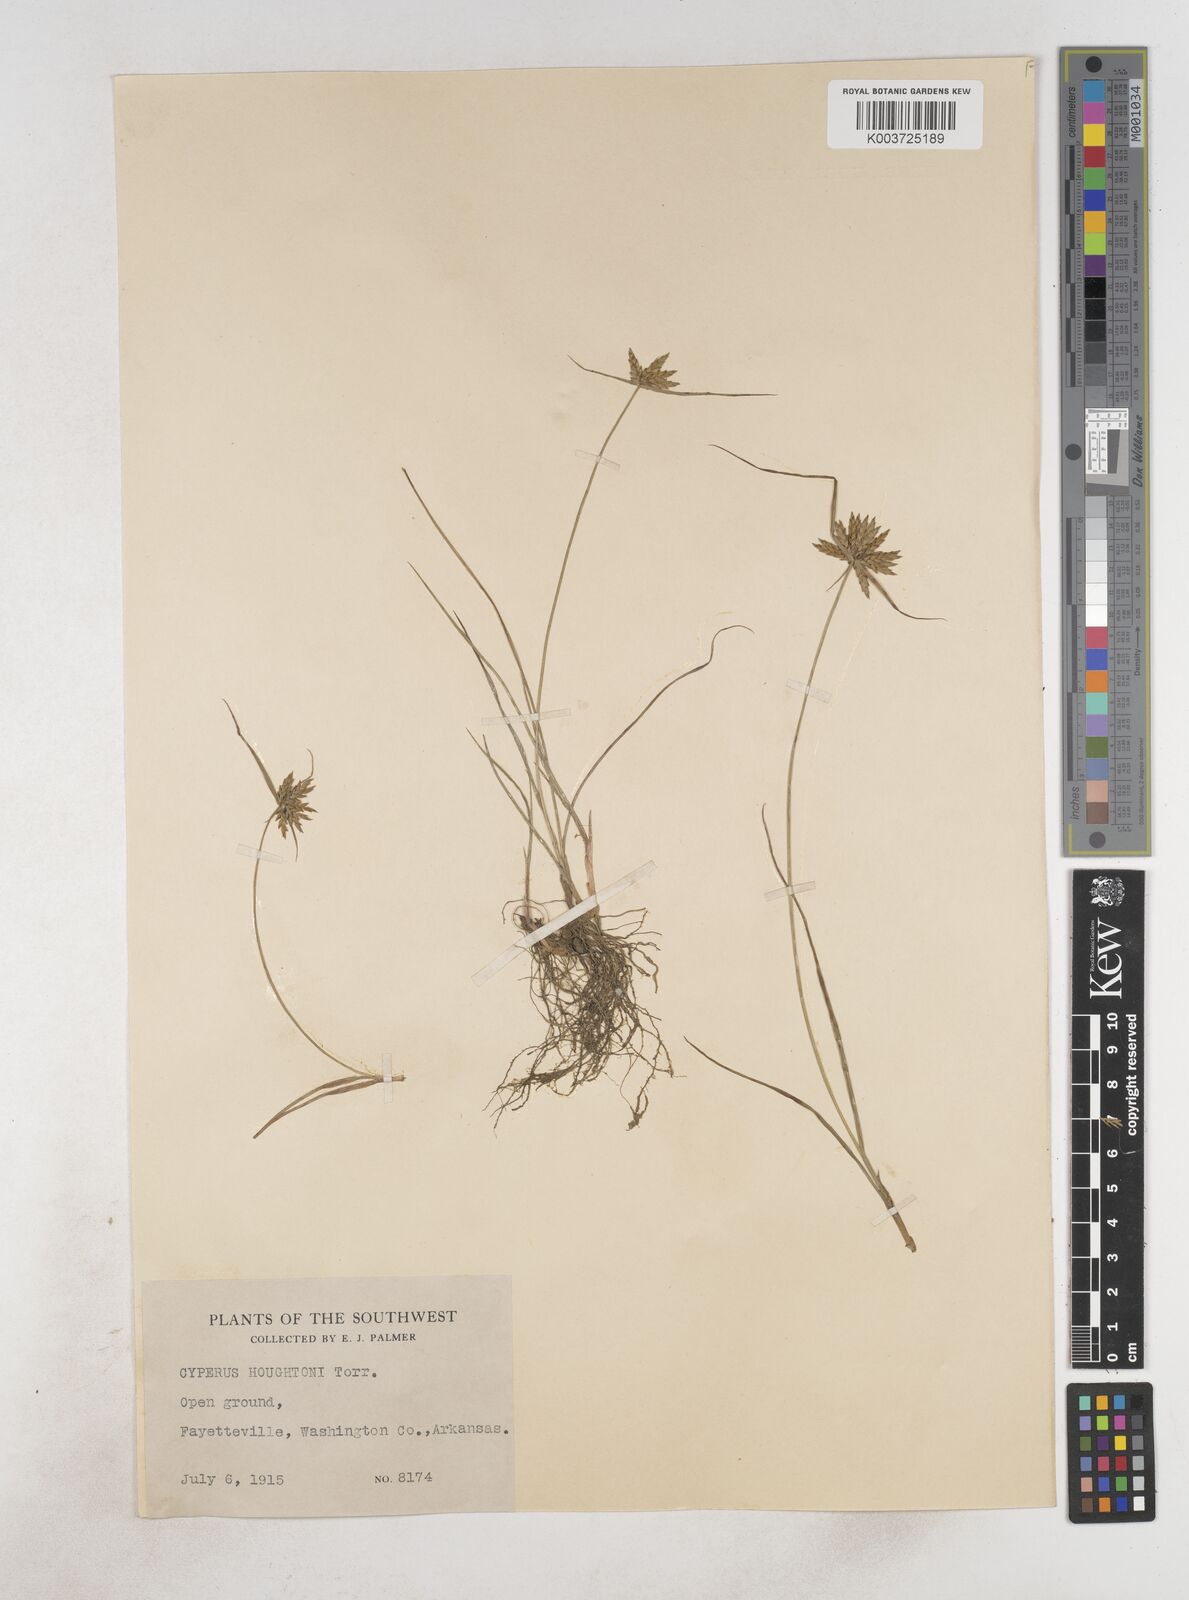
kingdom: Plantae
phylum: Tracheophyta
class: Liliopsida
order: Poales
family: Cyperaceae
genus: Cyperus
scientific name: Cyperus houghtonii
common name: Houghton's cyperus
